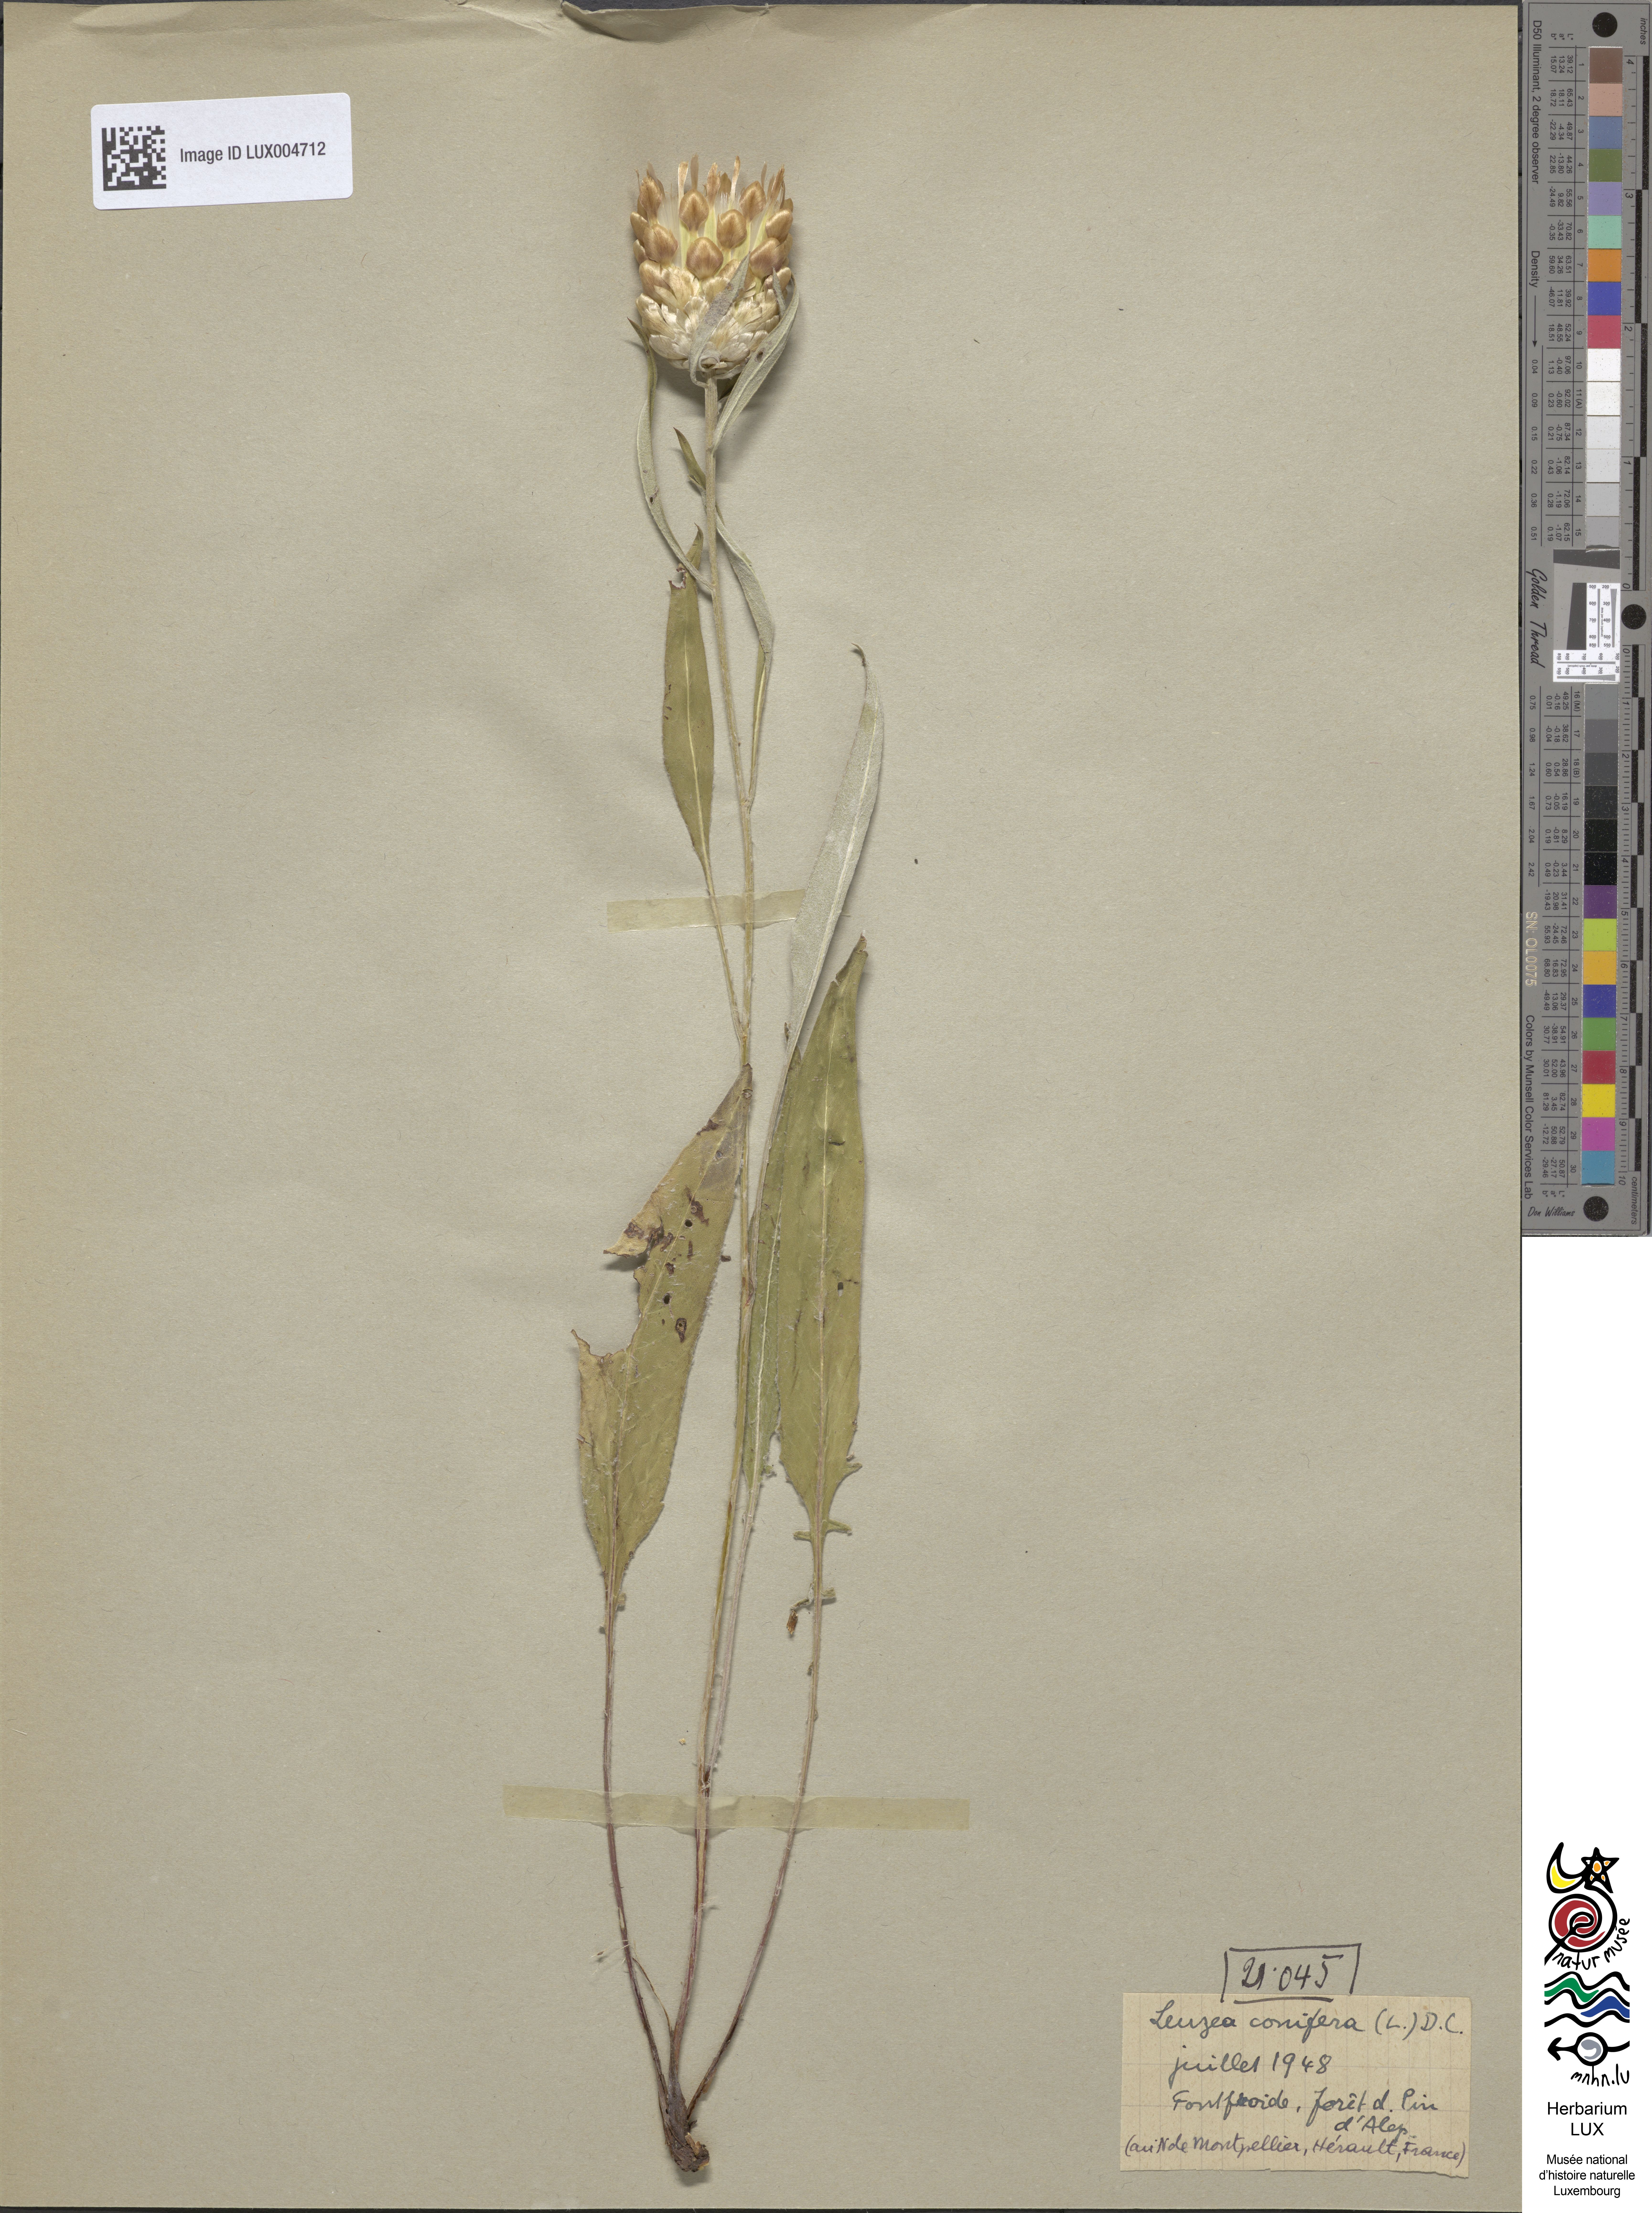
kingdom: Plantae
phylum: Tracheophyta
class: Magnoliopsida
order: Asterales
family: Asteraceae
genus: Leuzea
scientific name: Leuzea conifera
